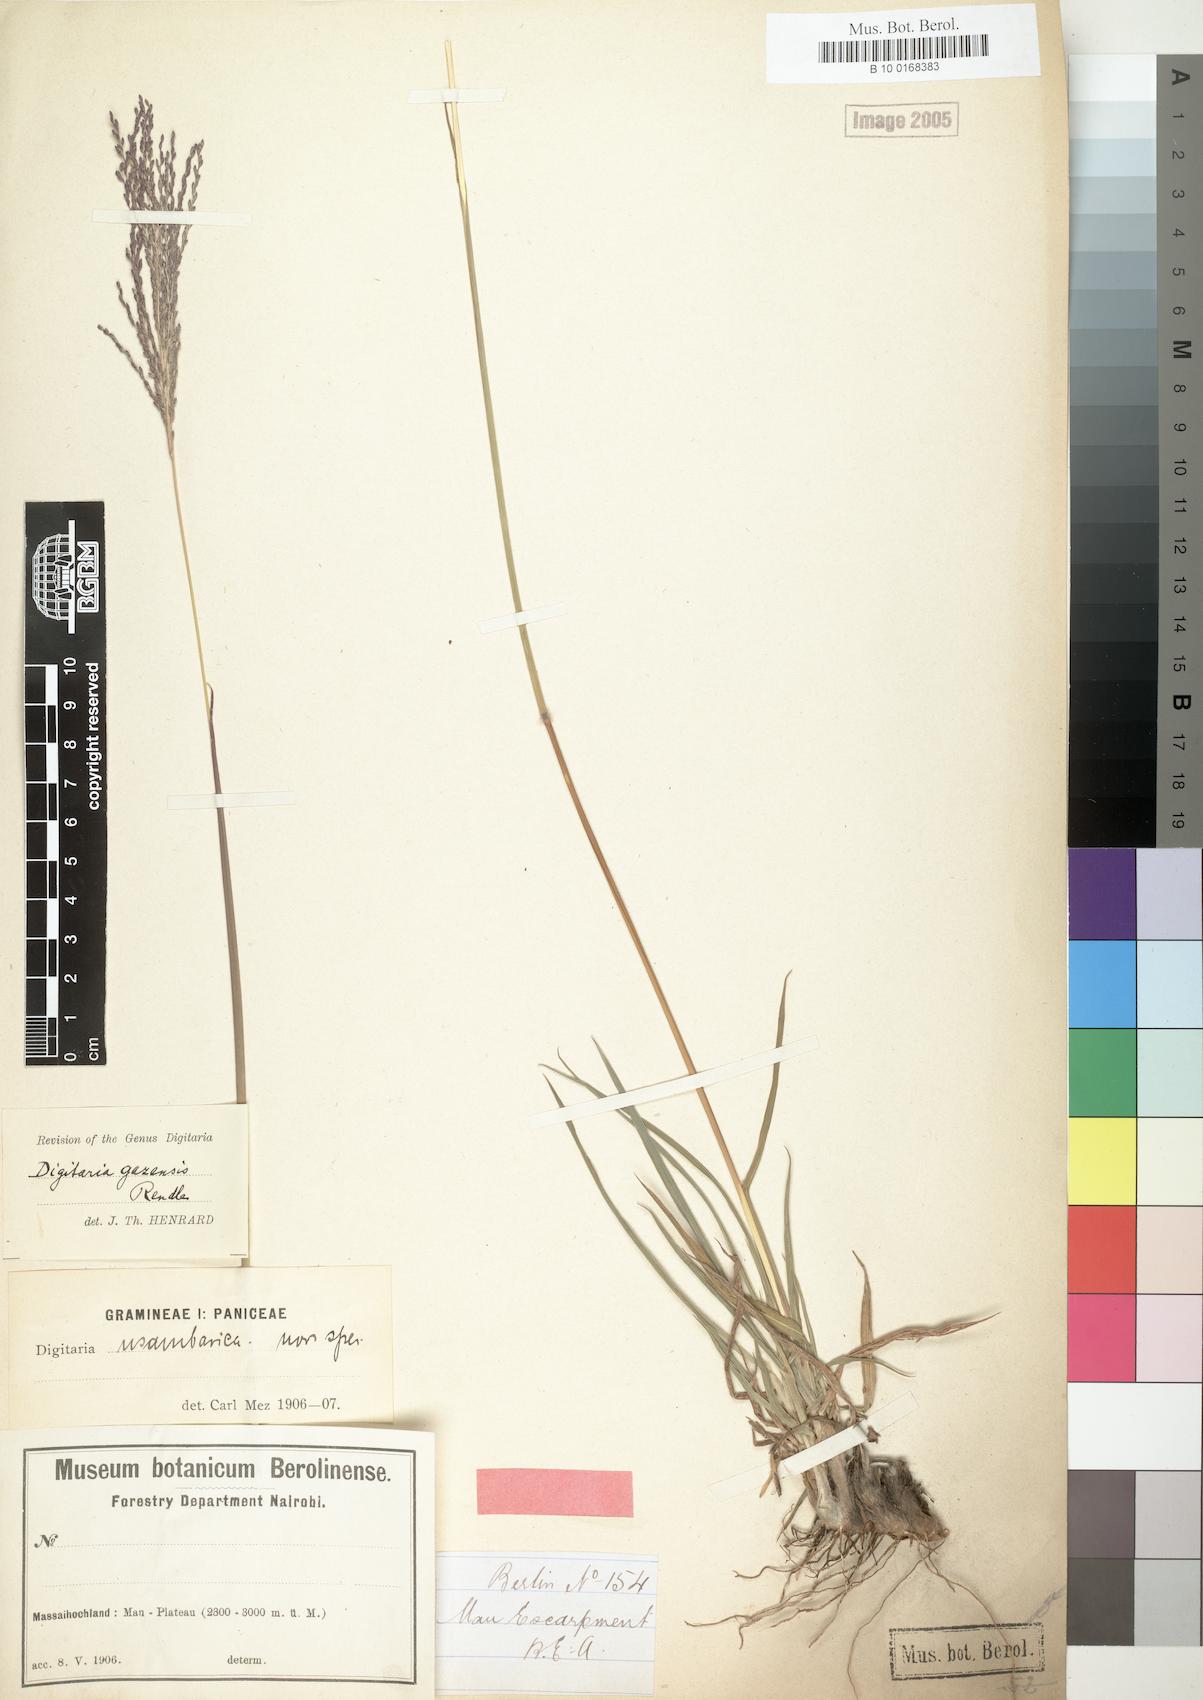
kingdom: Plantae
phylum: Tracheophyta
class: Liliopsida
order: Poales
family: Poaceae
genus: Digitaria
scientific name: Digitaria gazensis
